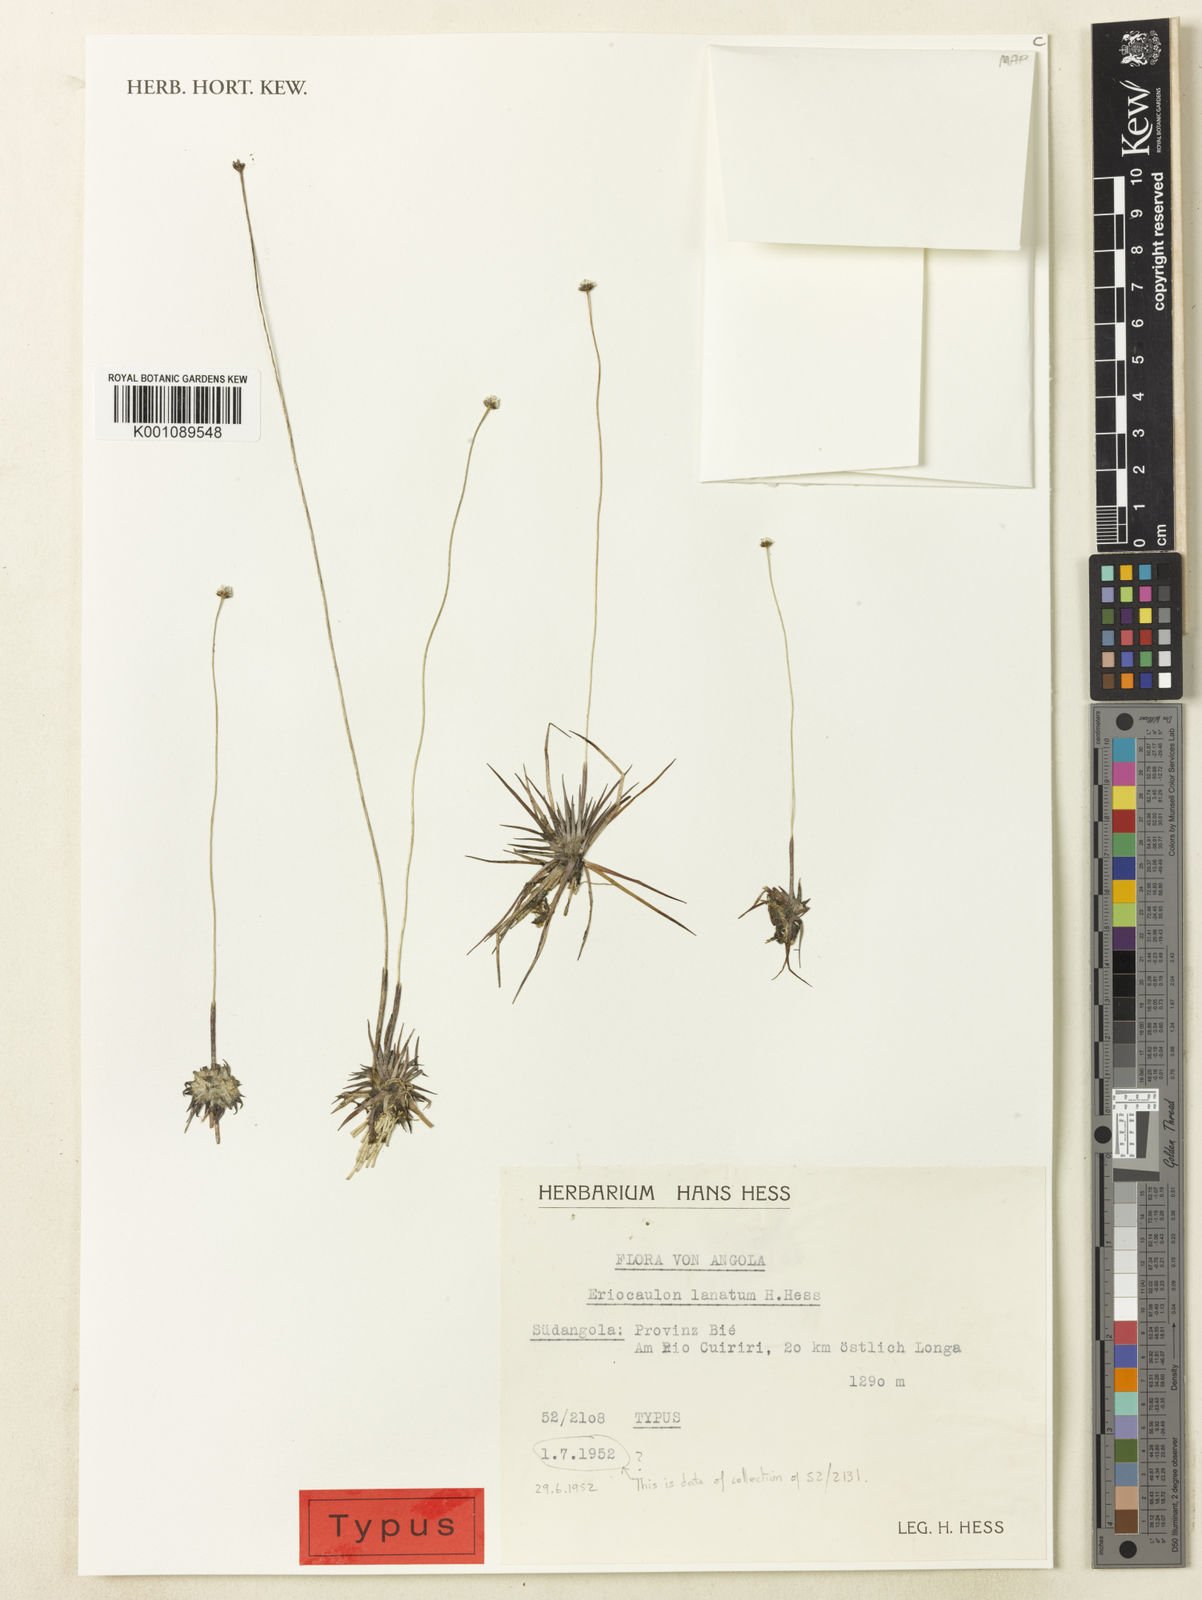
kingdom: Plantae
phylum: Tracheophyta
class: Liliopsida
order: Poales
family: Eriocaulaceae
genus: Eriocaulon
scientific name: Eriocaulon lanatum
